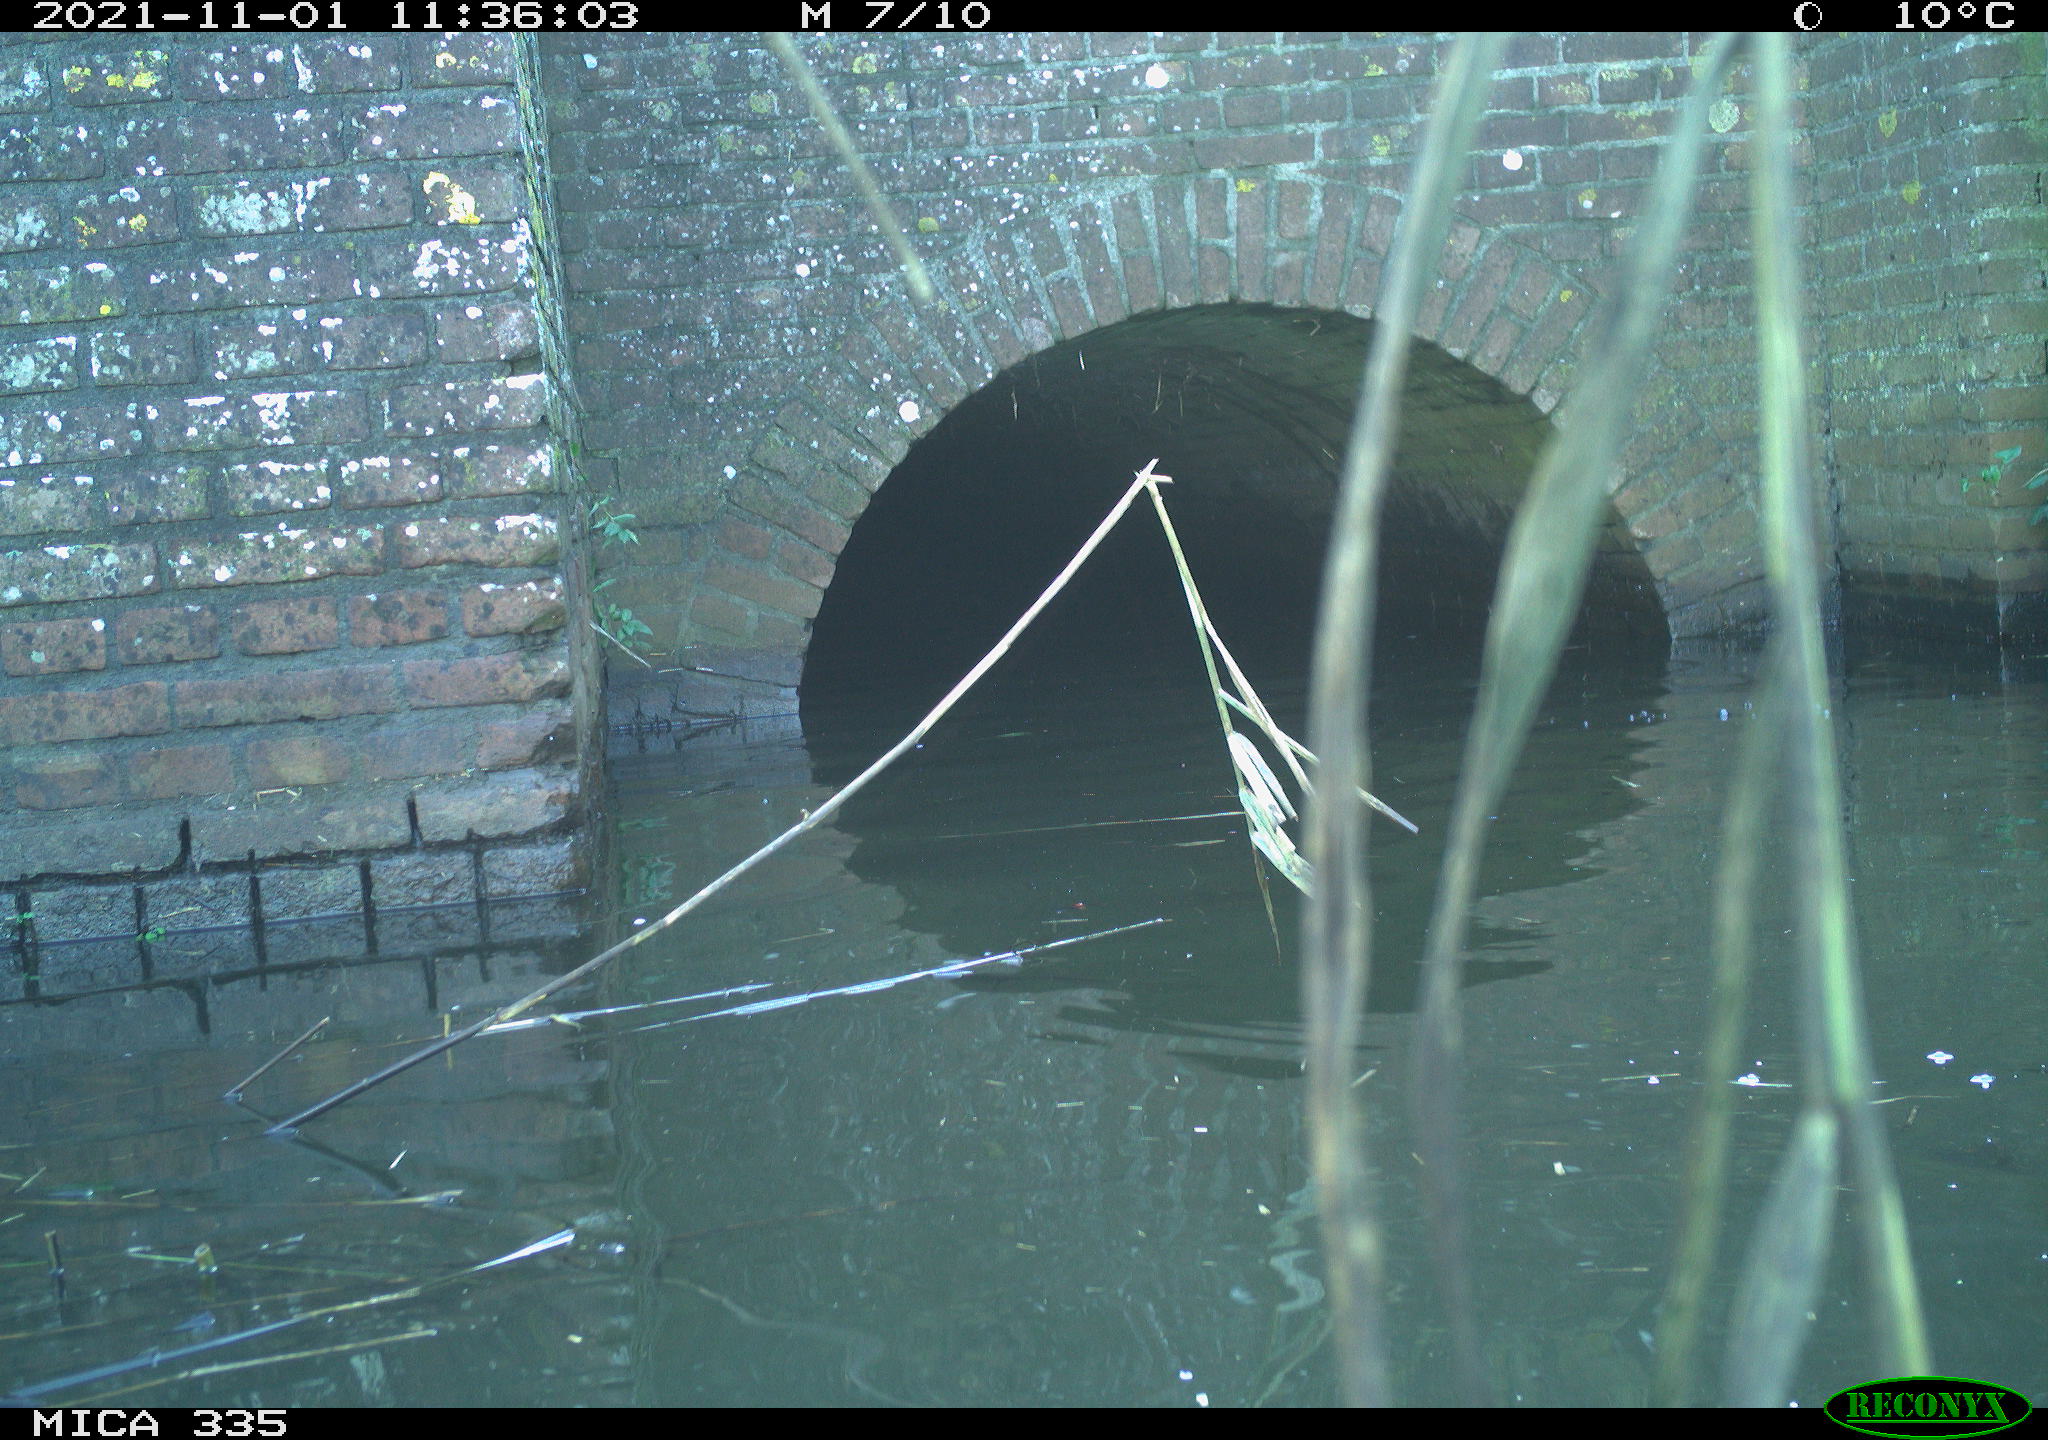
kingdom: Animalia
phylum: Chordata
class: Aves
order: Anseriformes
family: Anatidae
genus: Anas
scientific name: Anas platyrhynchos
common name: Mallard
